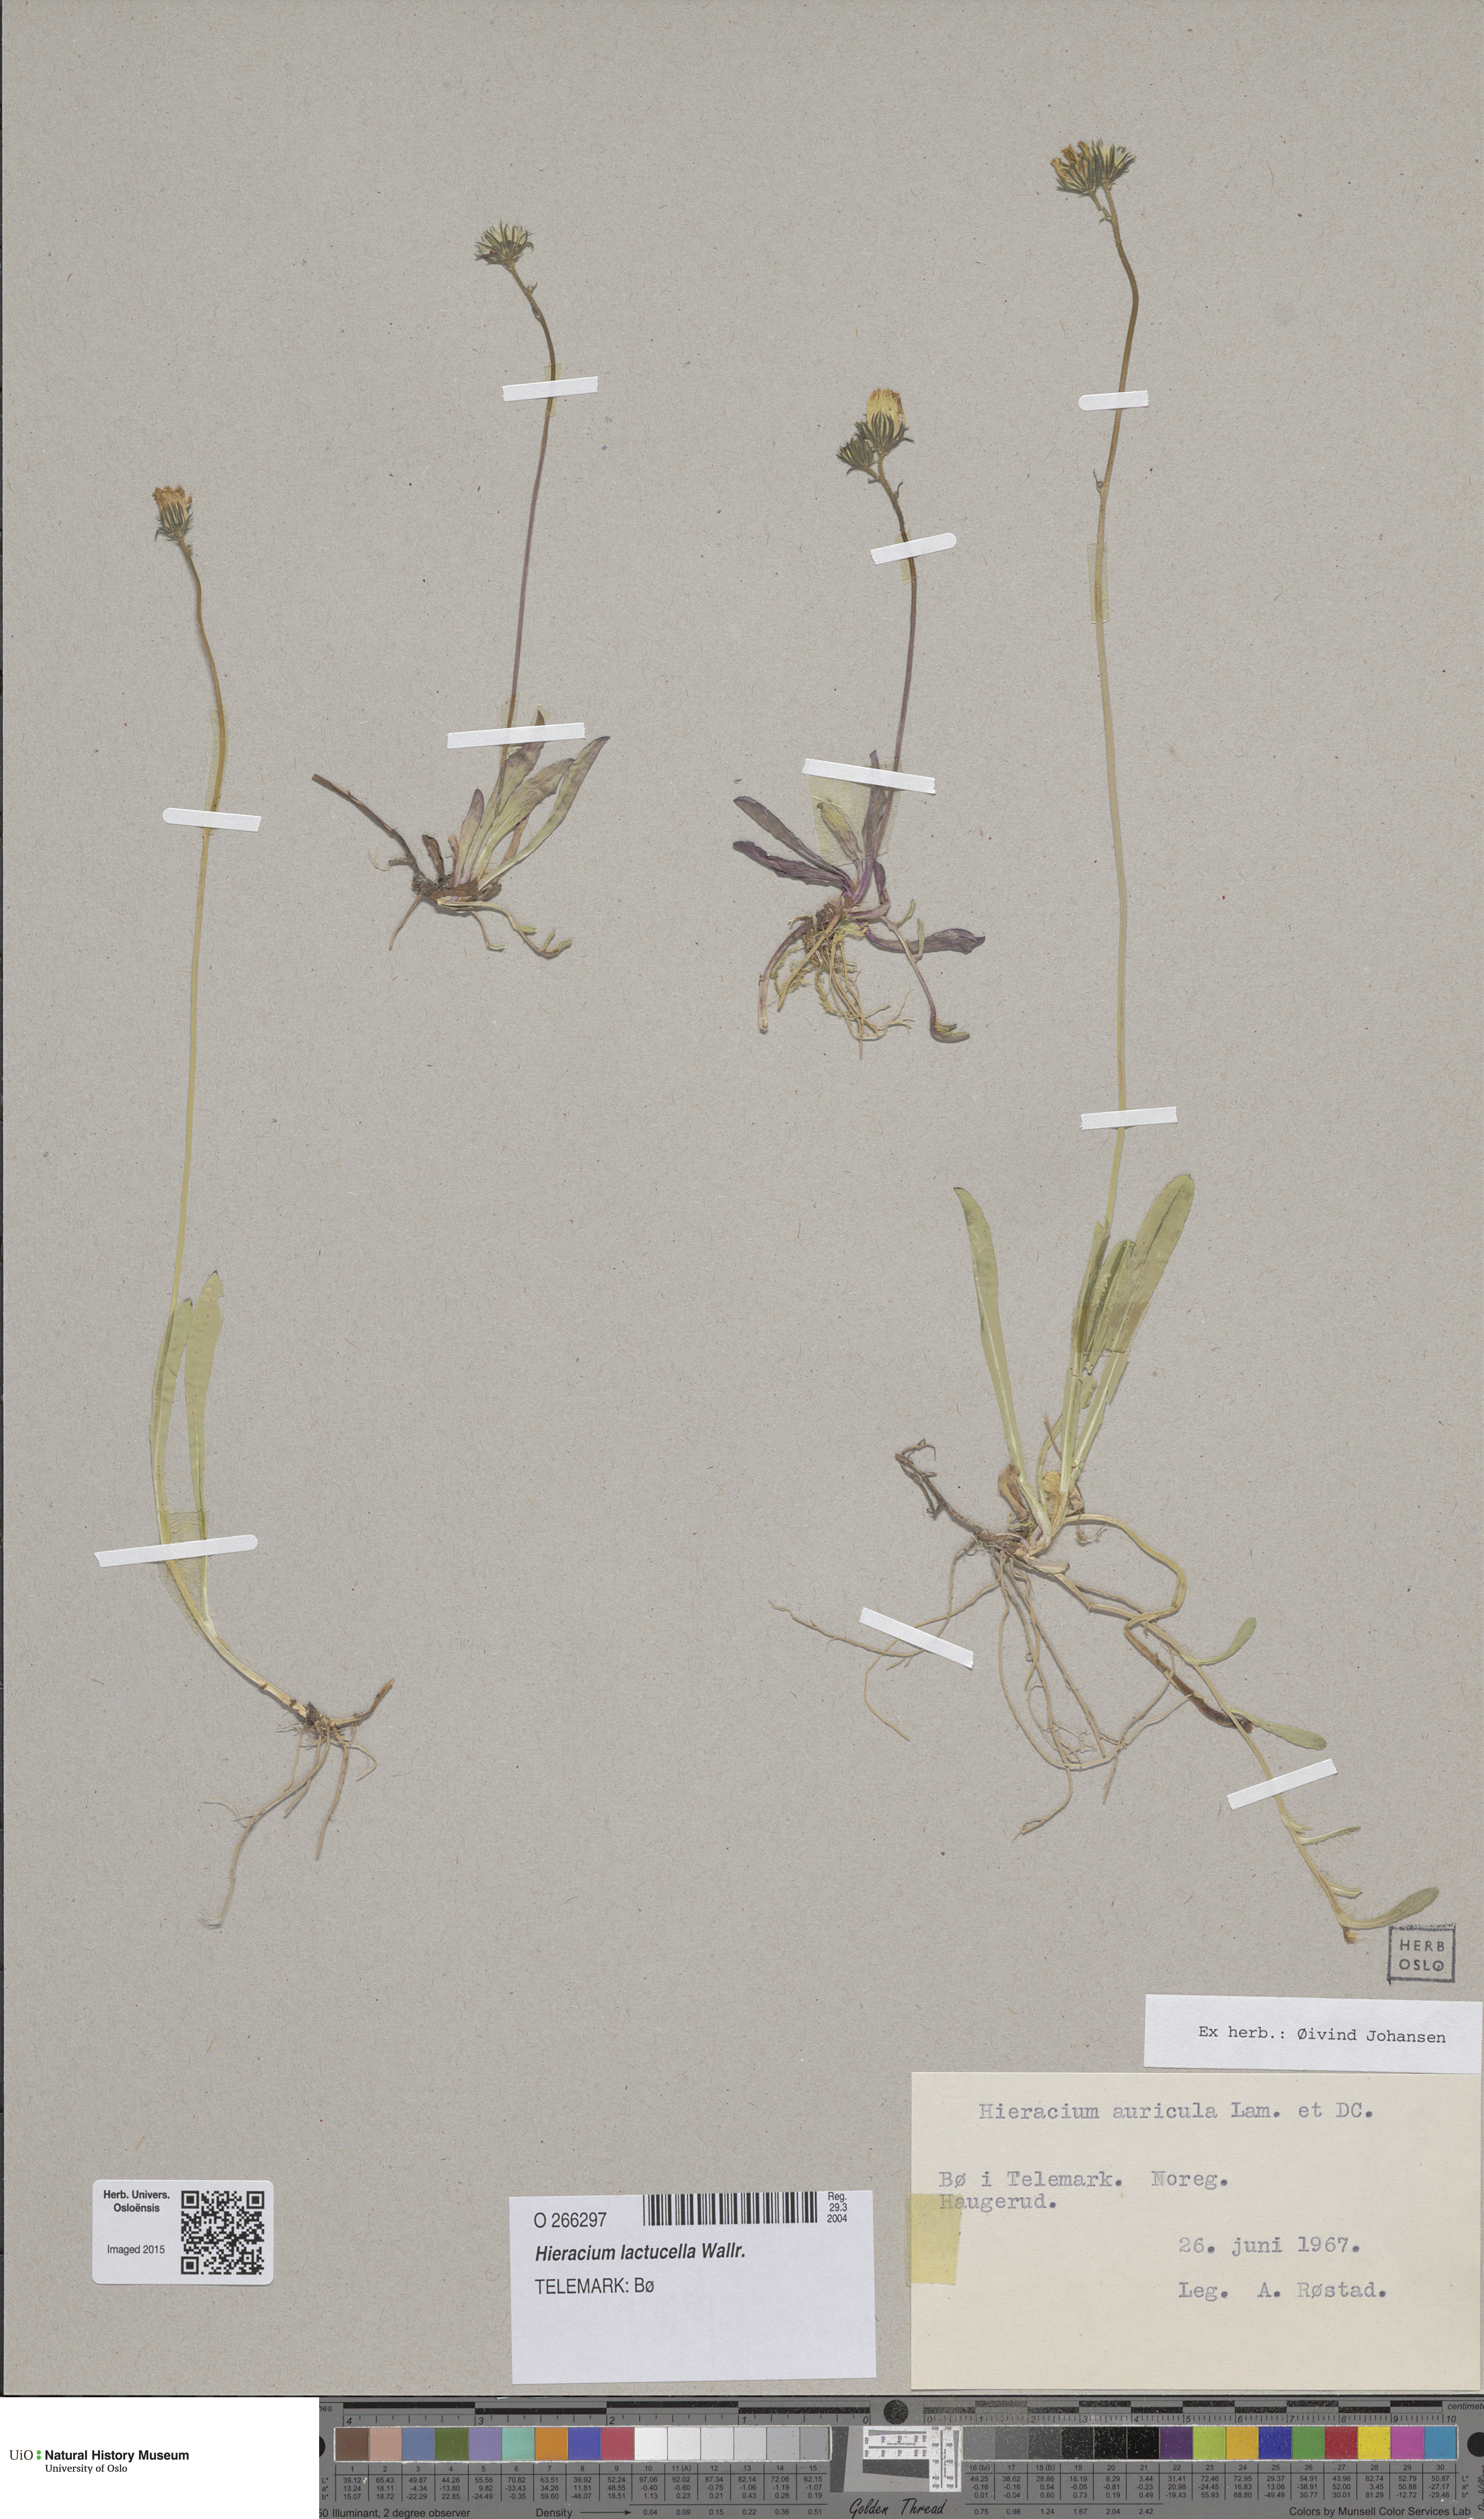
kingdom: Plantae
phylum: Tracheophyta
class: Magnoliopsida
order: Asterales
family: Asteraceae
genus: Pilosella
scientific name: Pilosella lactucella
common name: Glaucous fox-and-cubs
